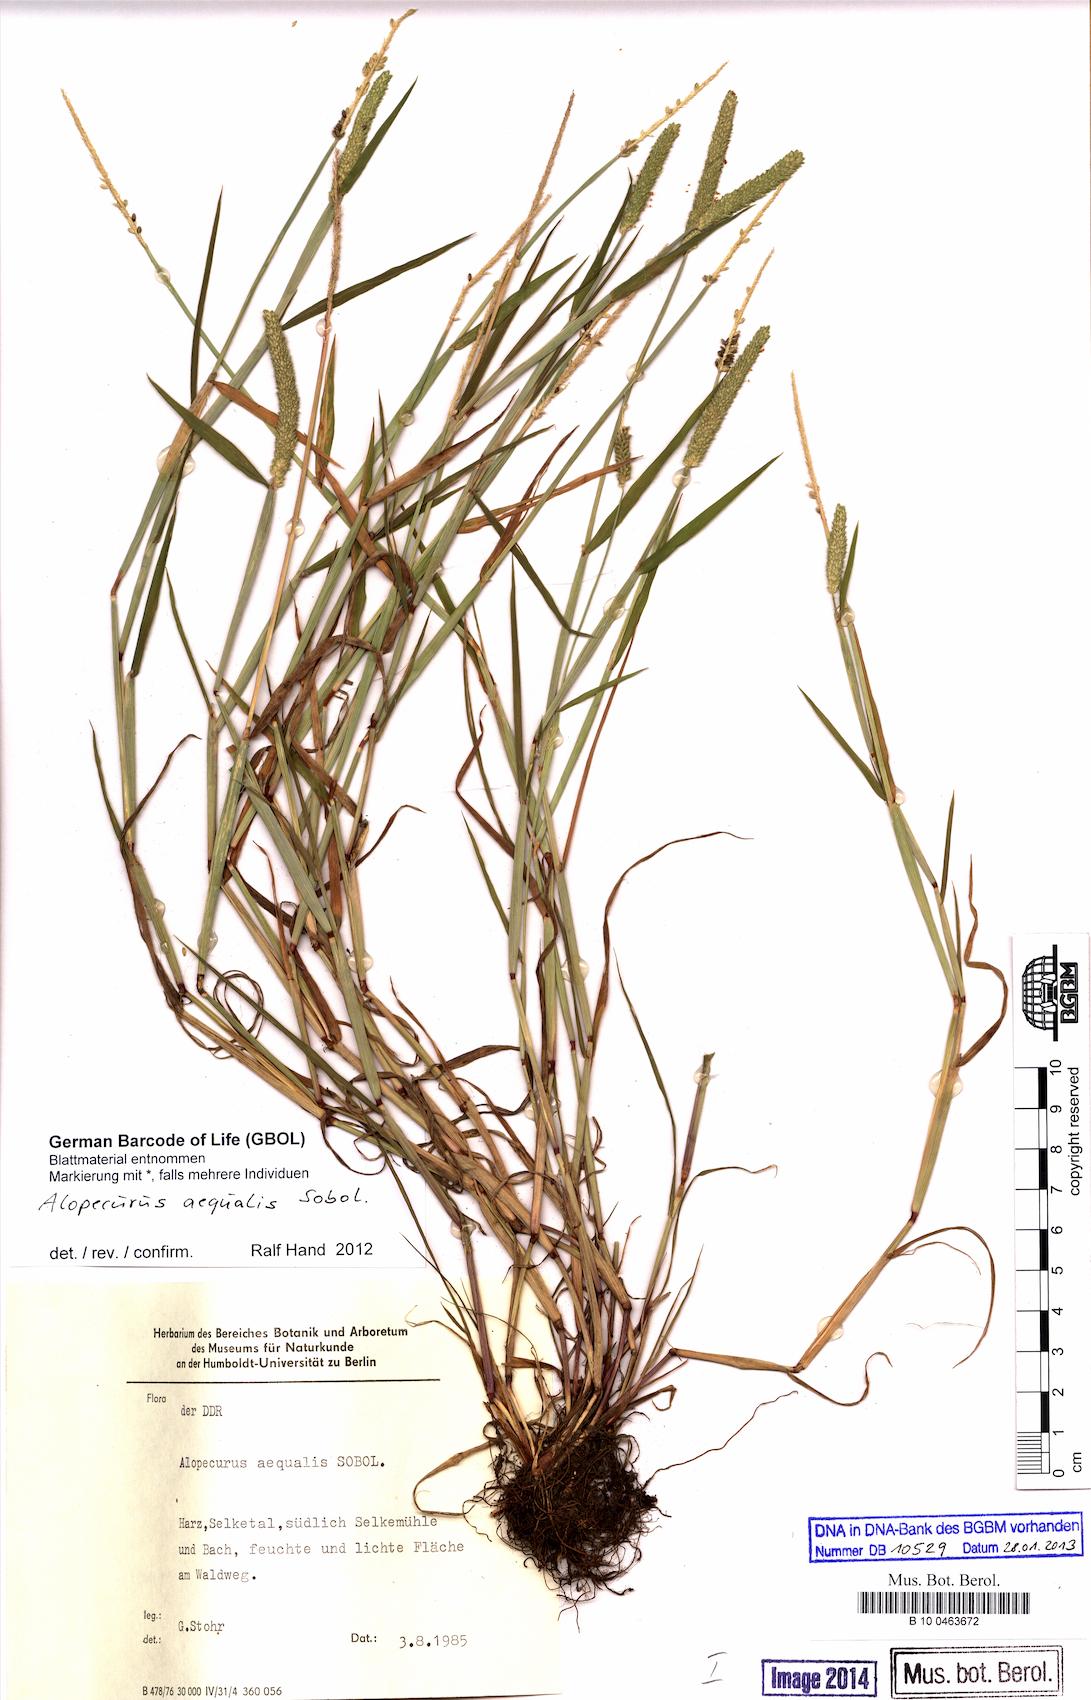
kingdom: Plantae
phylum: Tracheophyta
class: Liliopsida
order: Poales
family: Poaceae
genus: Alopecurus
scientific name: Alopecurus aequalis
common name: Orange foxtail
